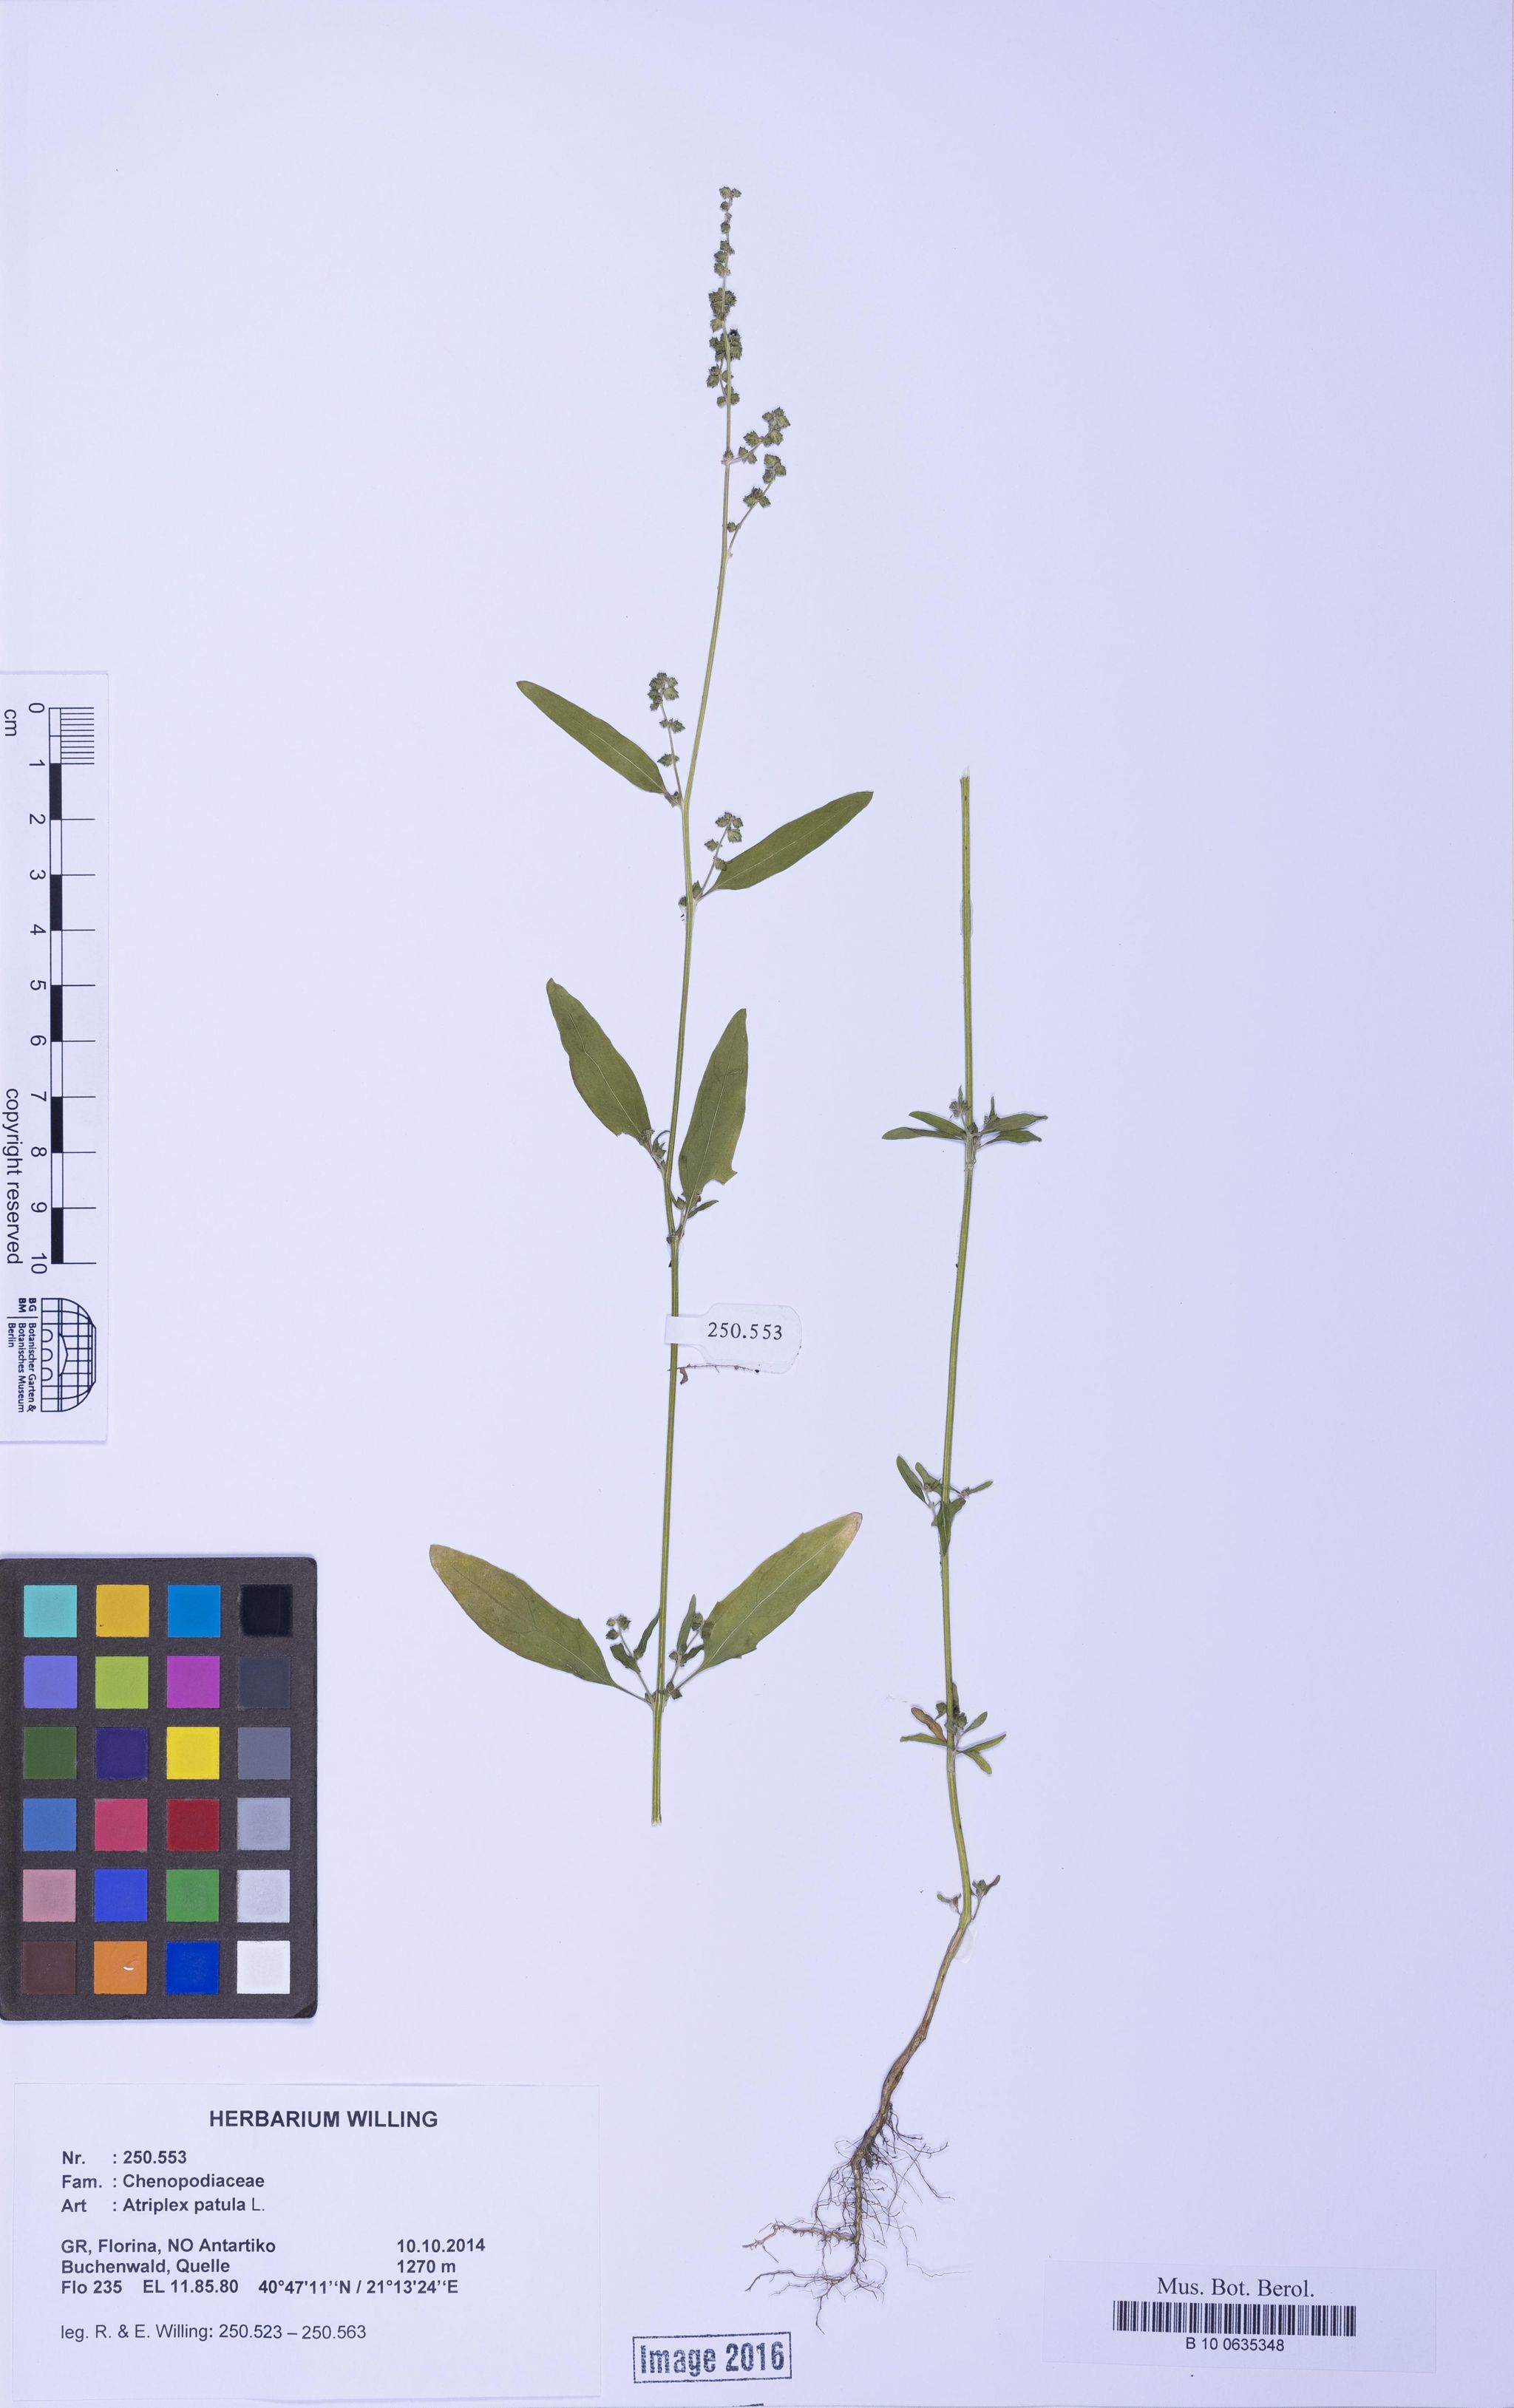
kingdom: Plantae
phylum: Tracheophyta
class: Magnoliopsida
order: Caryophyllales
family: Amaranthaceae
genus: Atriplex
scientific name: Atriplex patula
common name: Common orache
